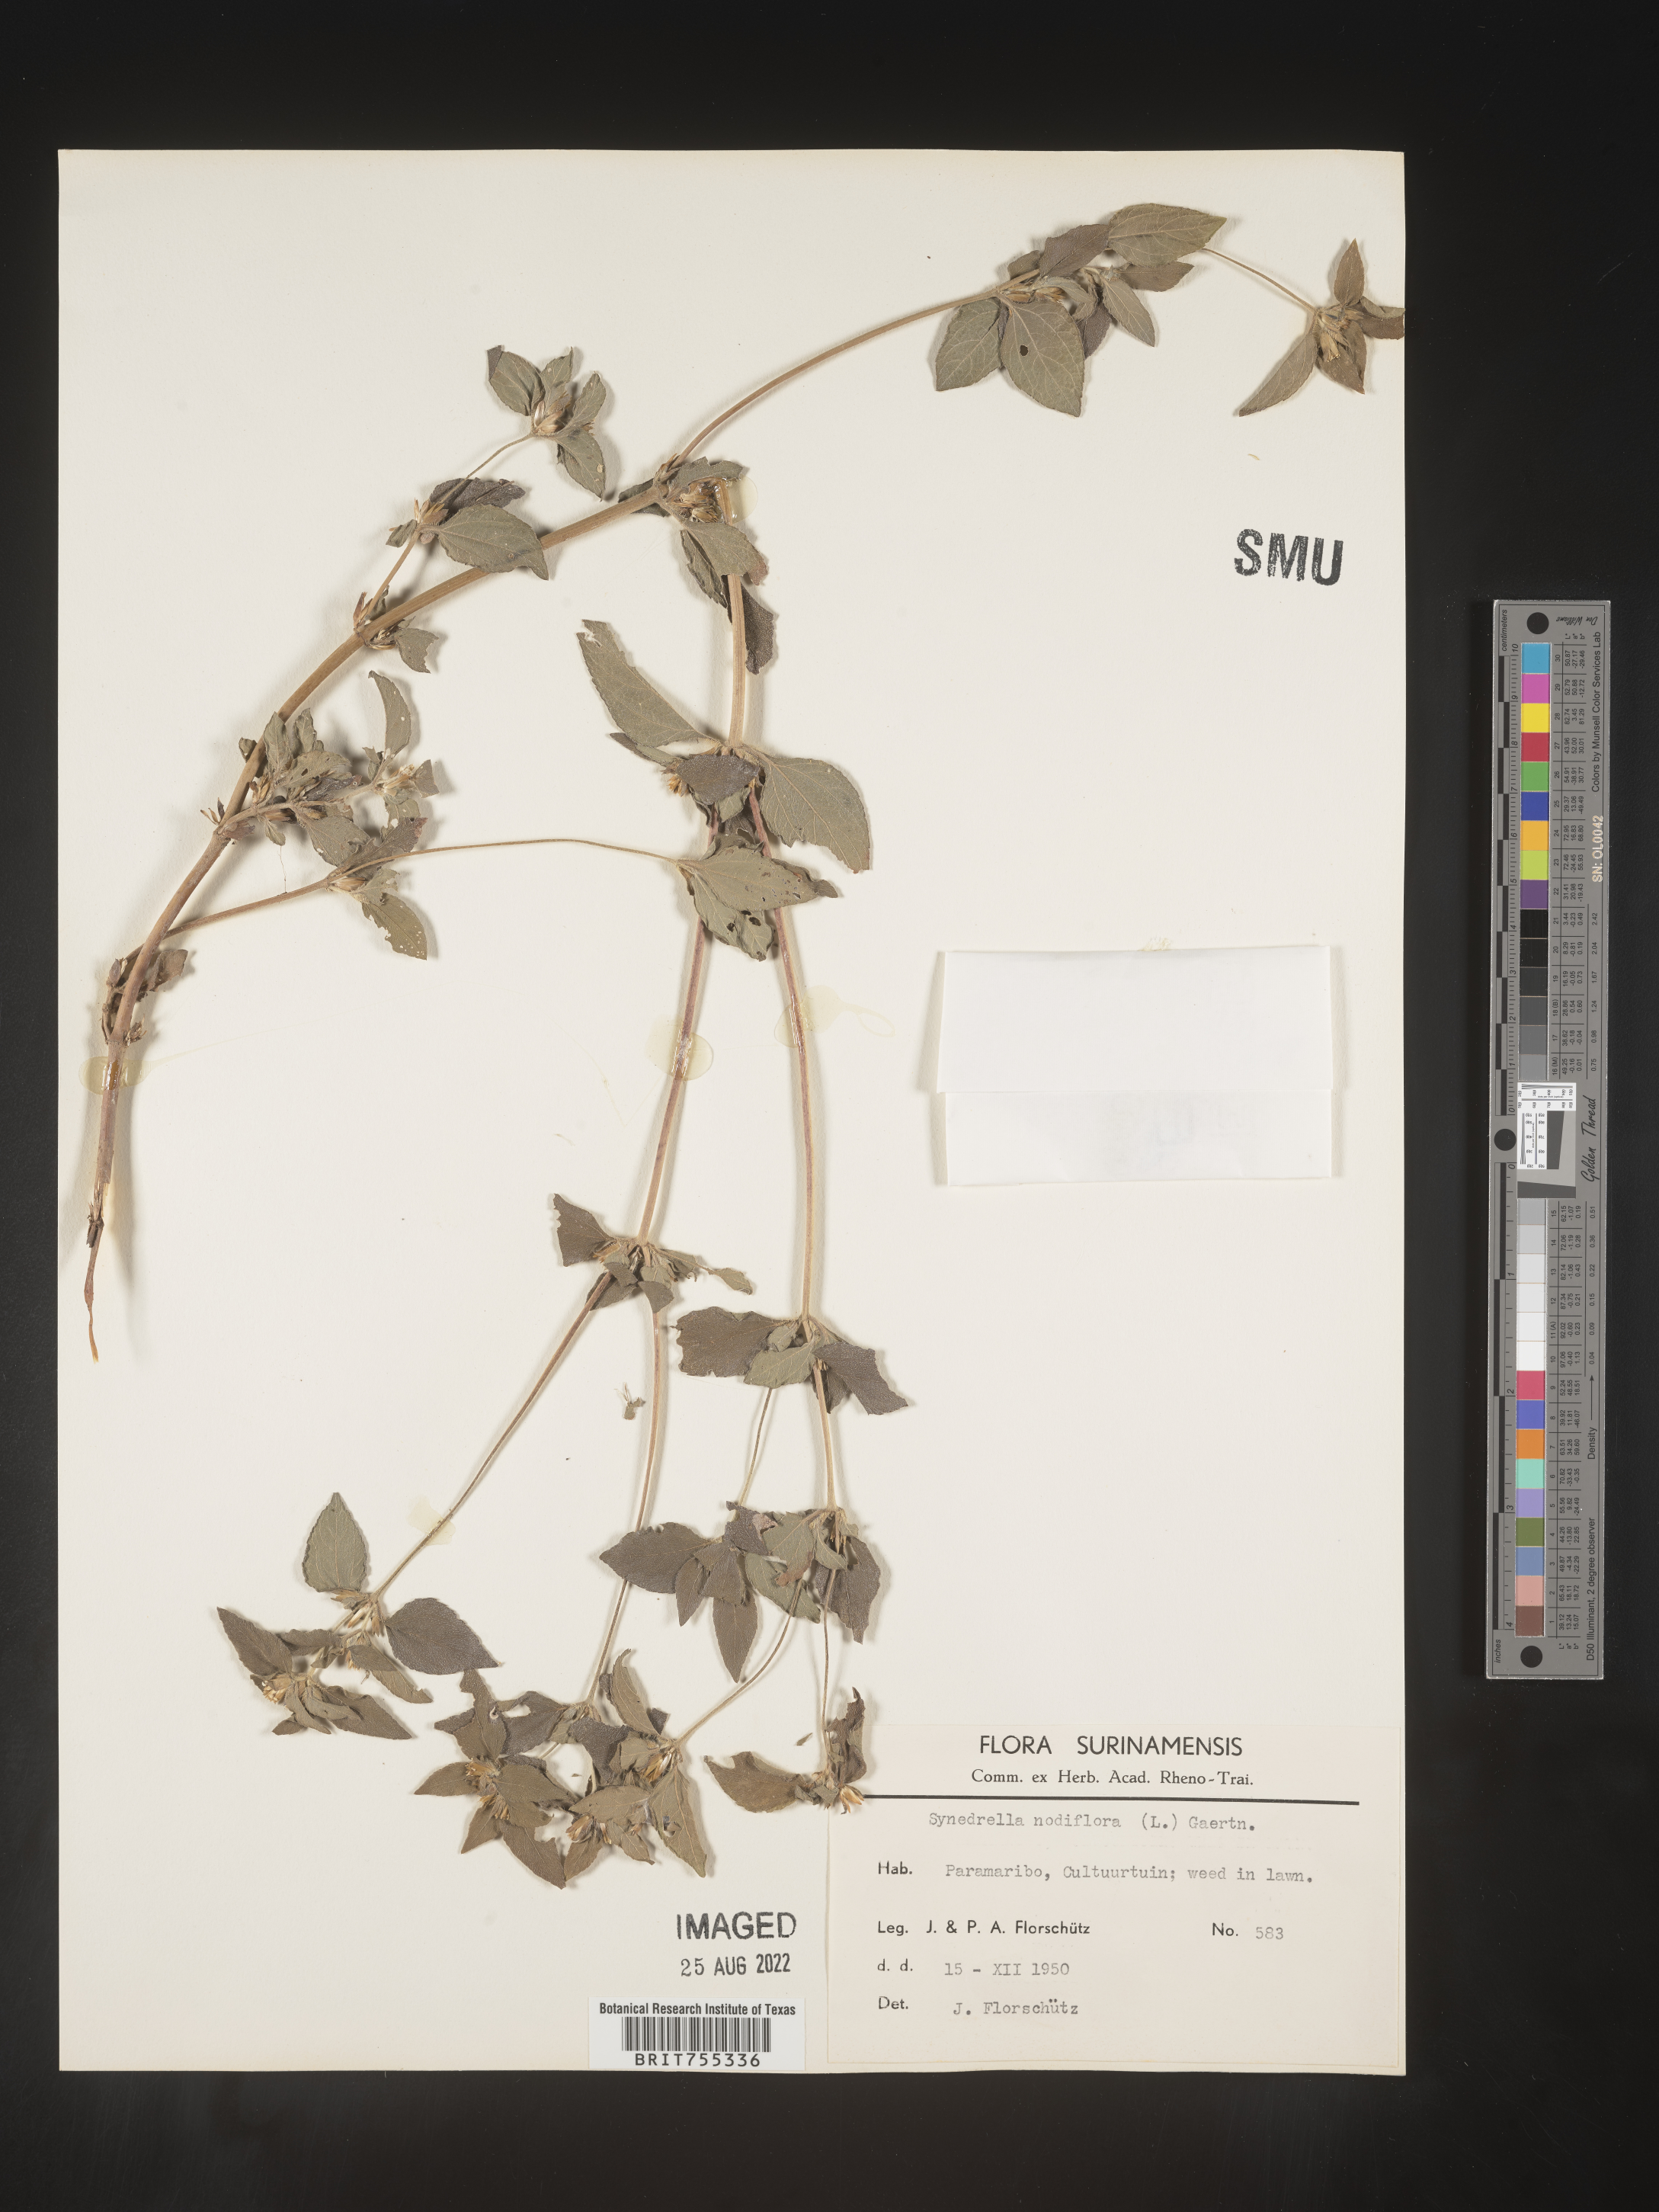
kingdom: Plantae
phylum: Tracheophyta
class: Magnoliopsida
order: Asterales
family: Asteraceae
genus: Synedrella
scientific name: Synedrella
